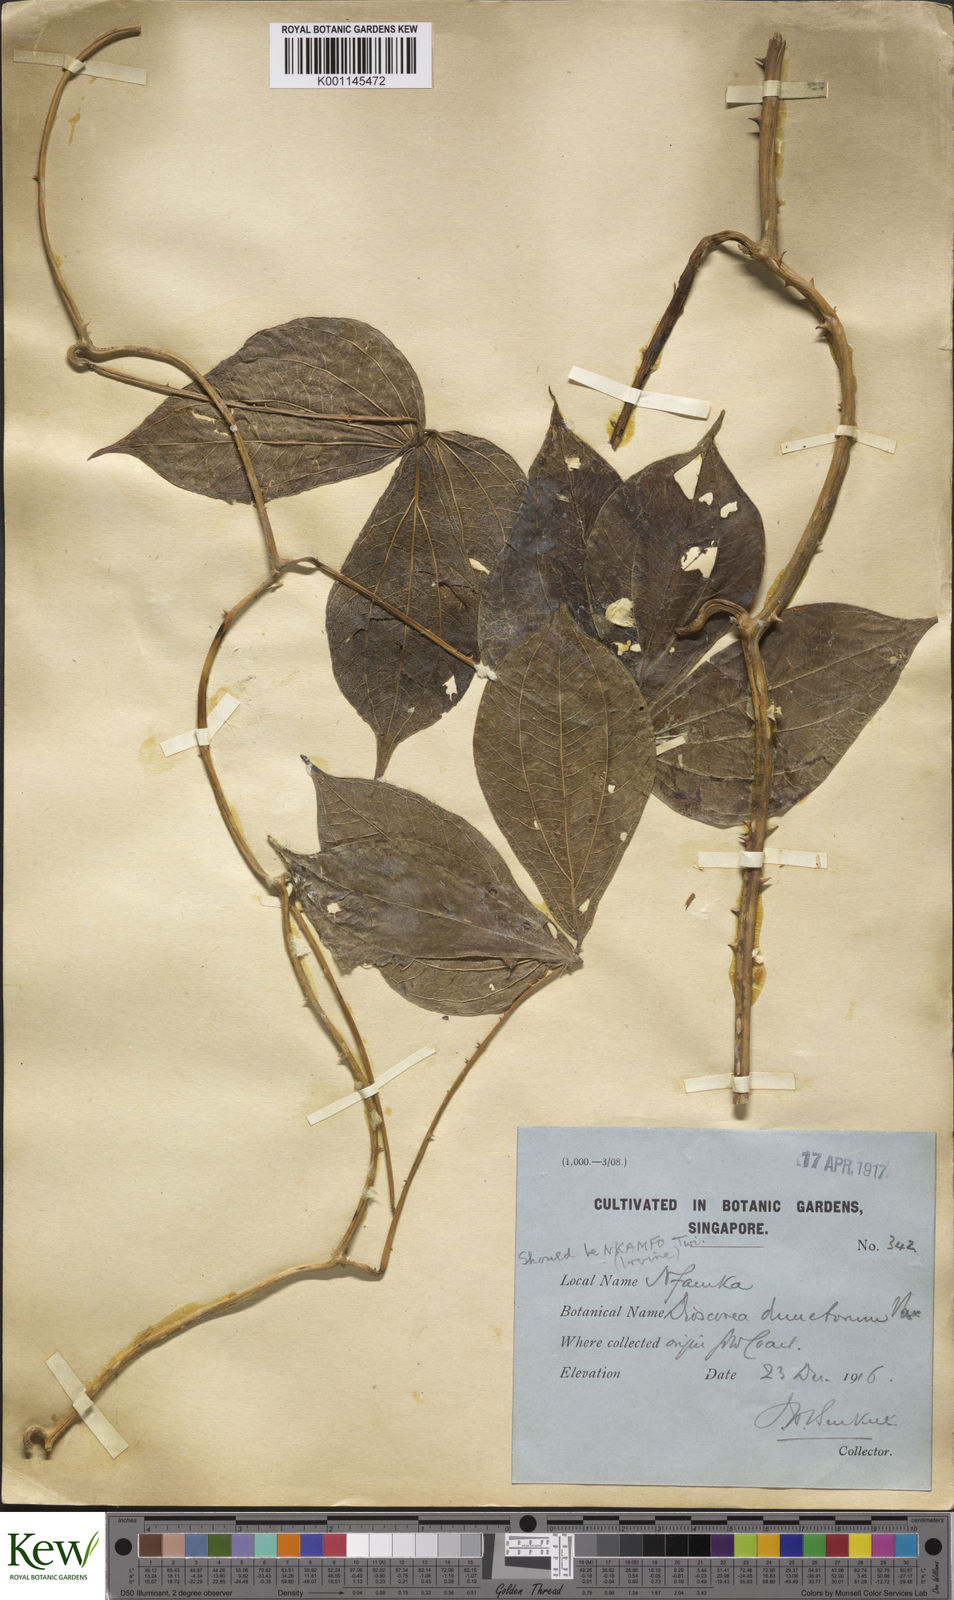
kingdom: Plantae
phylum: Tracheophyta
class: Liliopsida
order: Dioscoreales
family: Dioscoreaceae
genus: Dioscorea
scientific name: Dioscorea dumetorum
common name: African bitter yam
